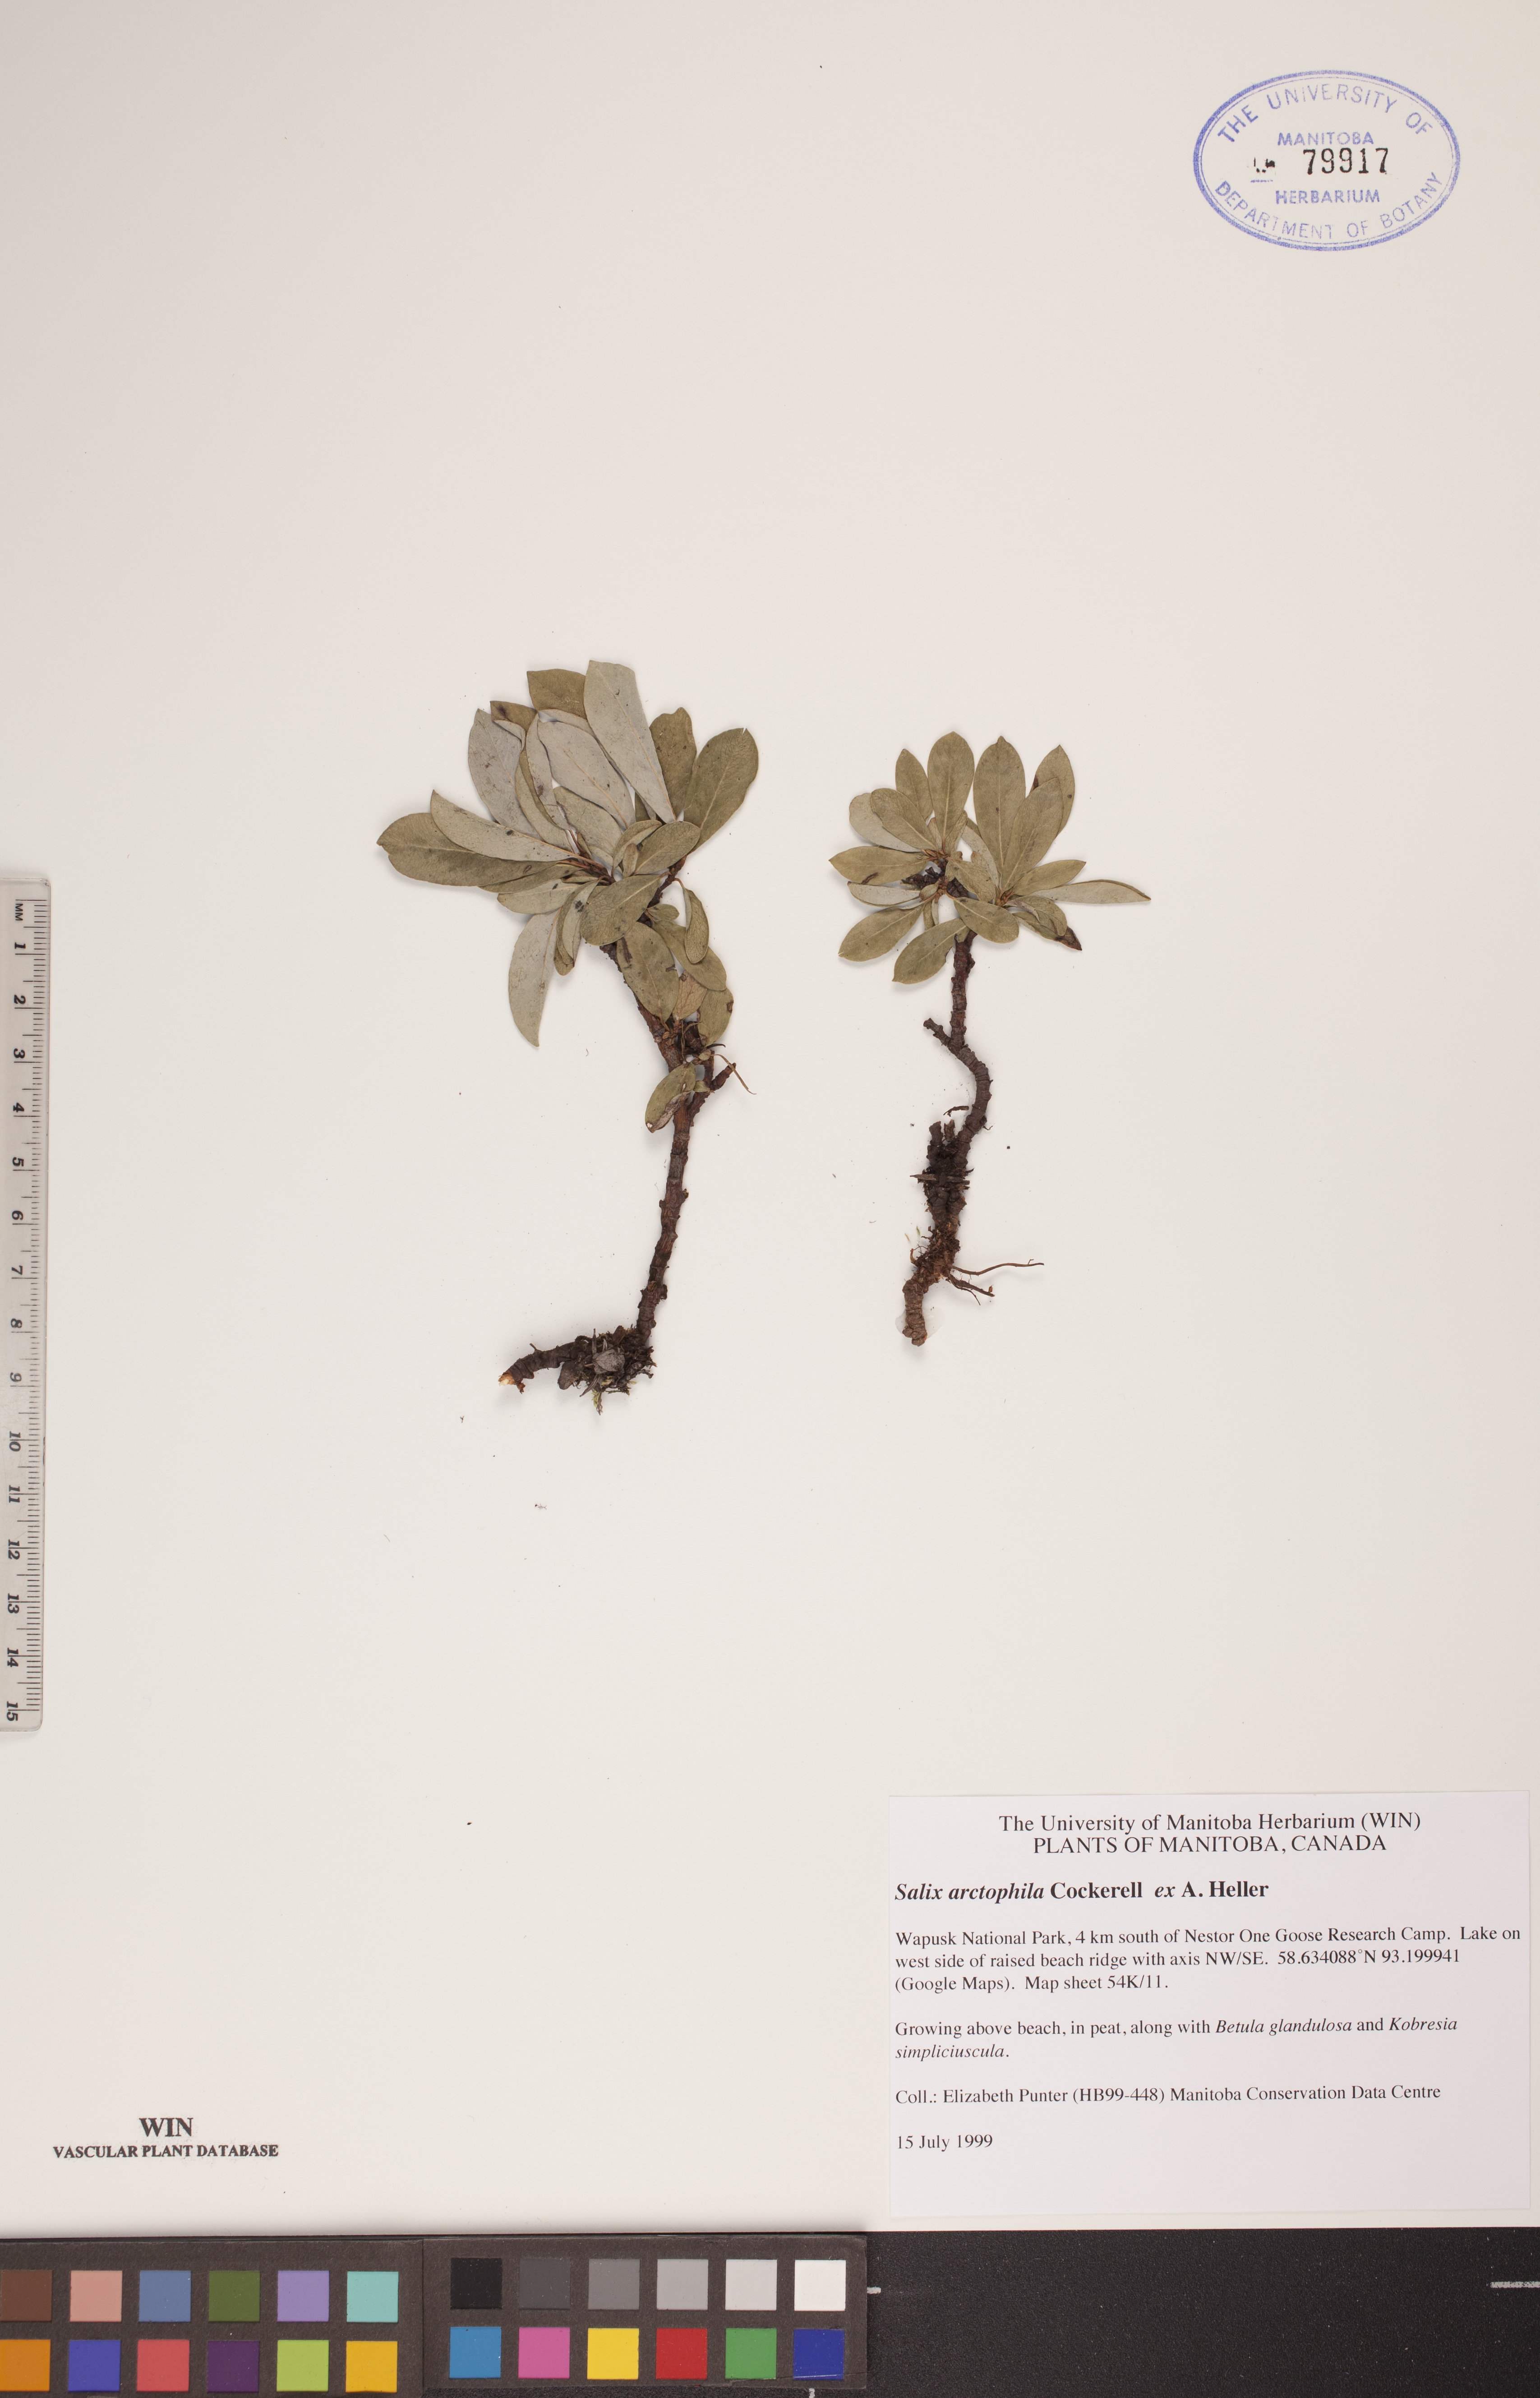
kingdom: Plantae
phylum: Tracheophyta
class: Magnoliopsida
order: Malpighiales
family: Salicaceae
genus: Salix
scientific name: Salix arctophila
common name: Greenland willow
